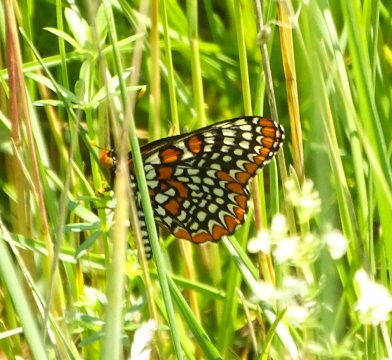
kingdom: Animalia
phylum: Arthropoda
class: Insecta
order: Lepidoptera
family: Nymphalidae
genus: Euphydryas
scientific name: Euphydryas phaeton
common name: Baltimore Checkerspot
